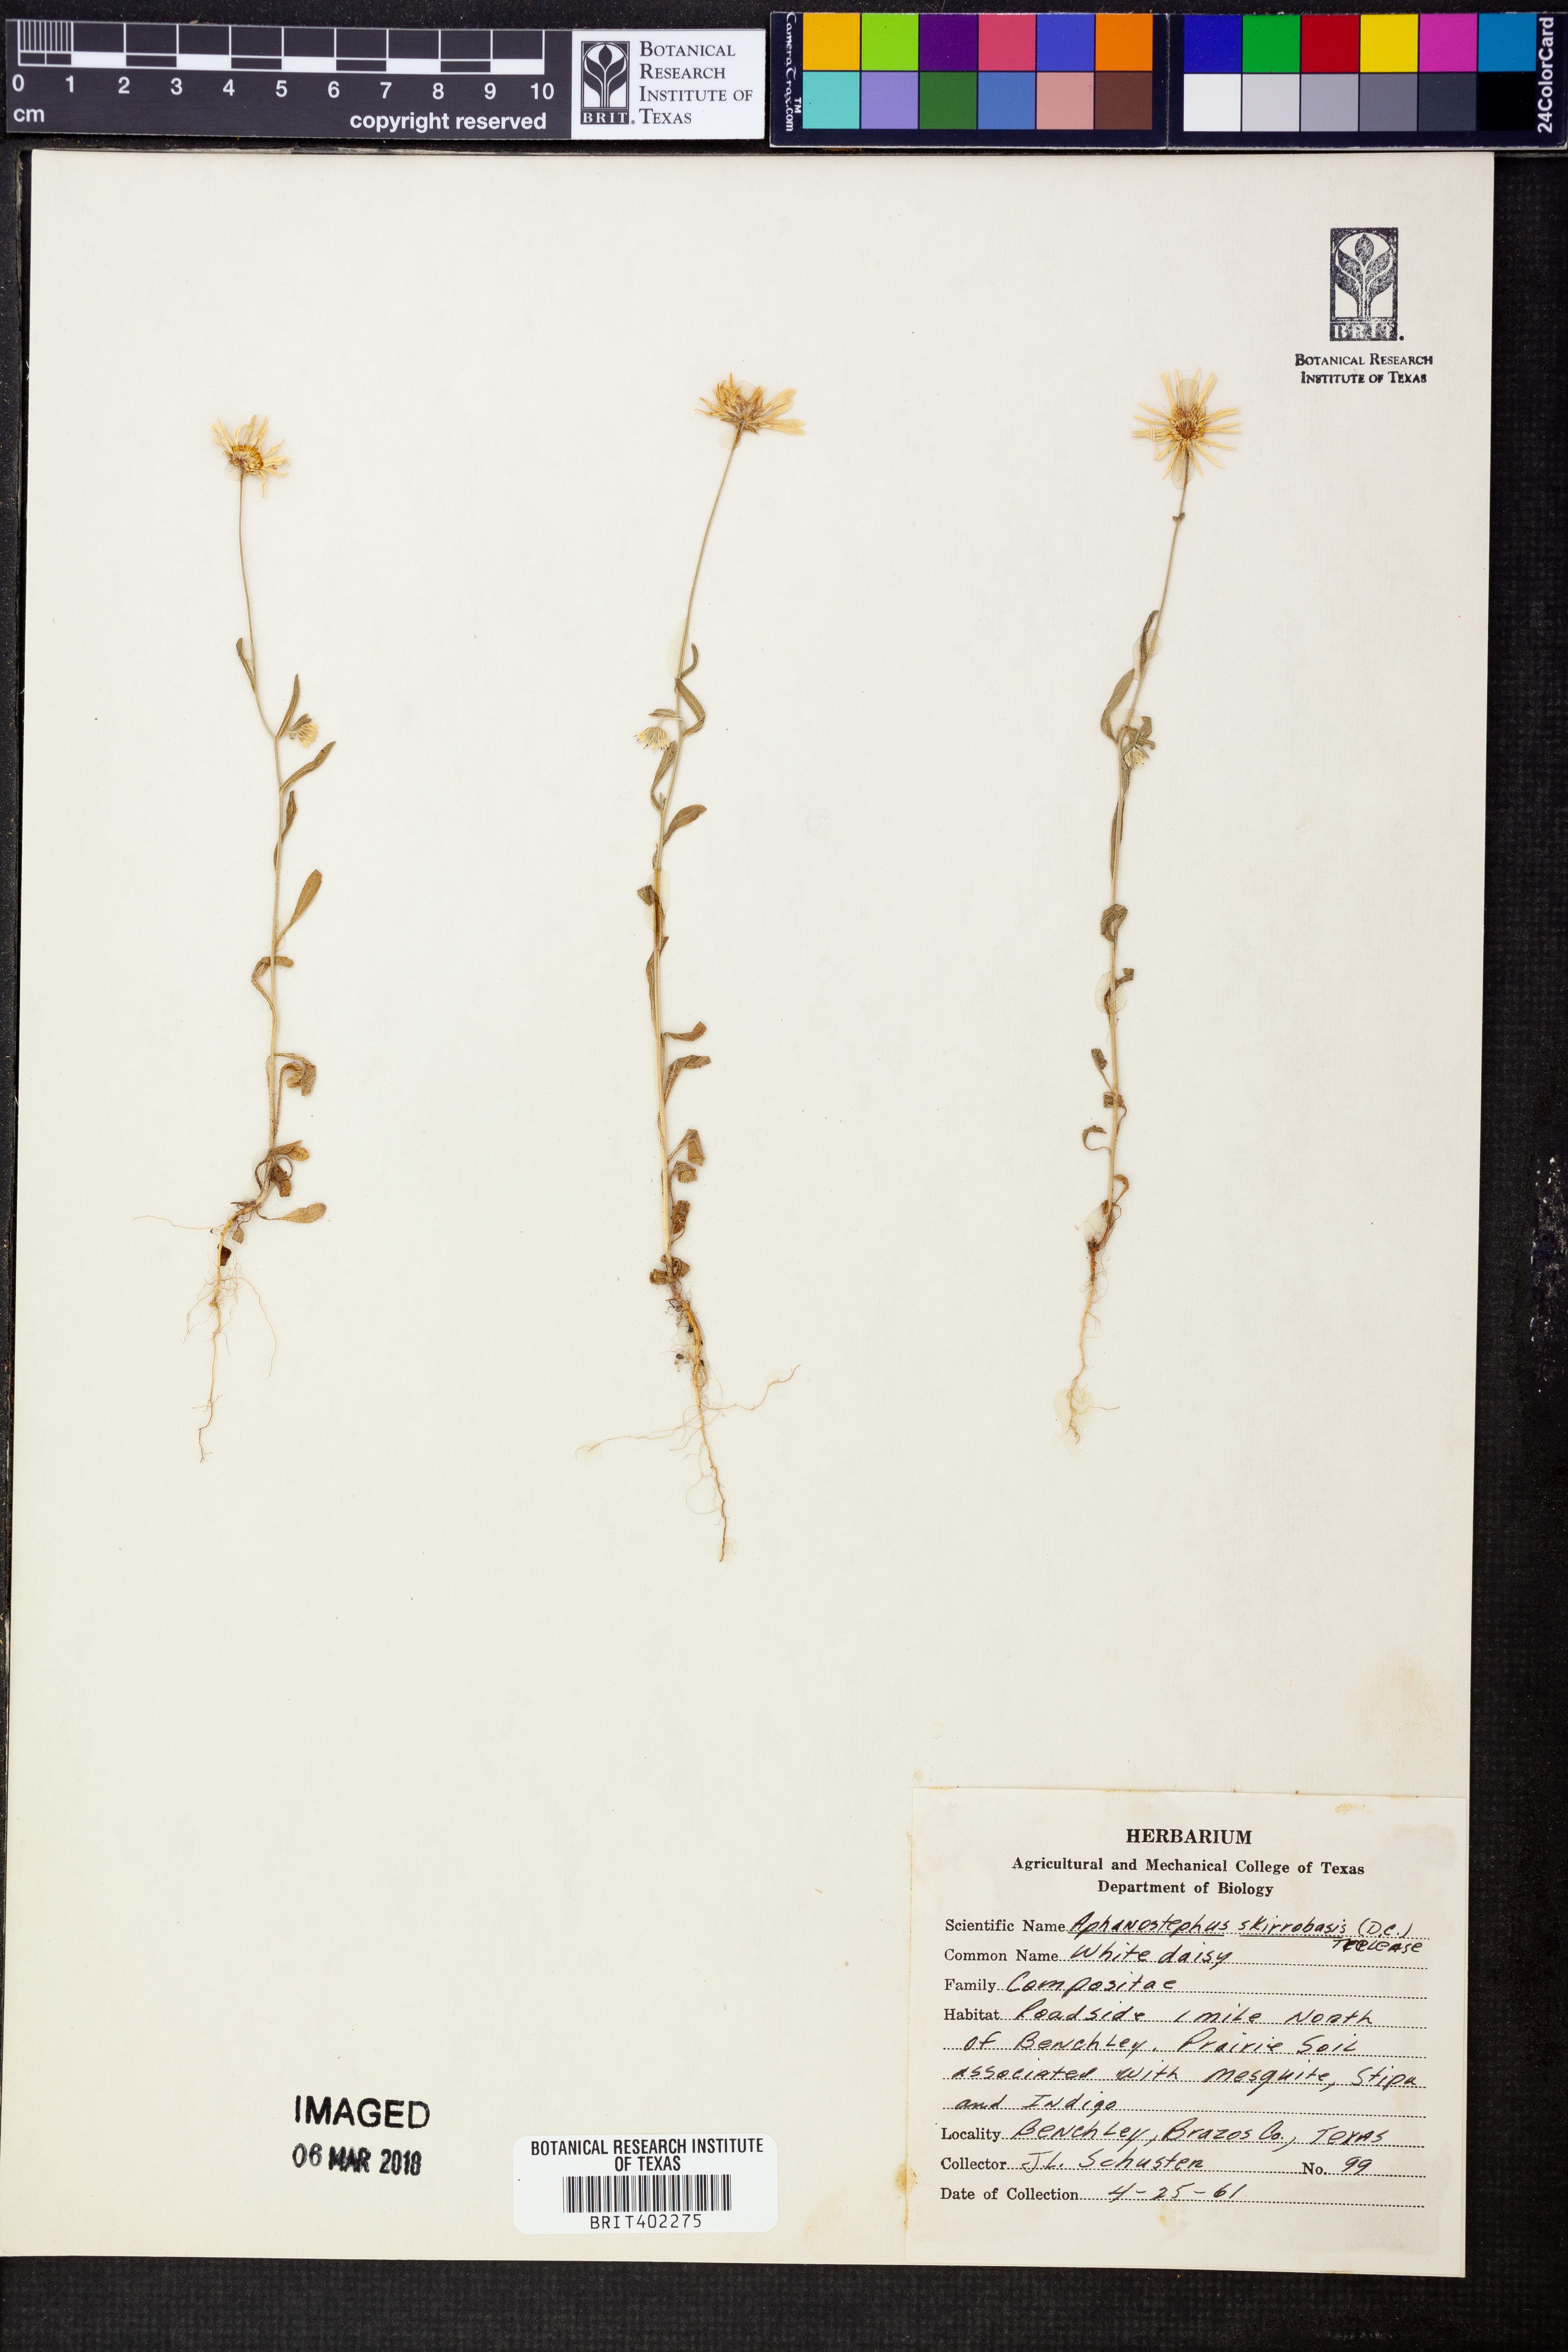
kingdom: Plantae
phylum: Tracheophyta
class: Magnoliopsida
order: Asterales
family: Asteraceae
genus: Aphanostephus
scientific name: Aphanostephus skirrhobasis
